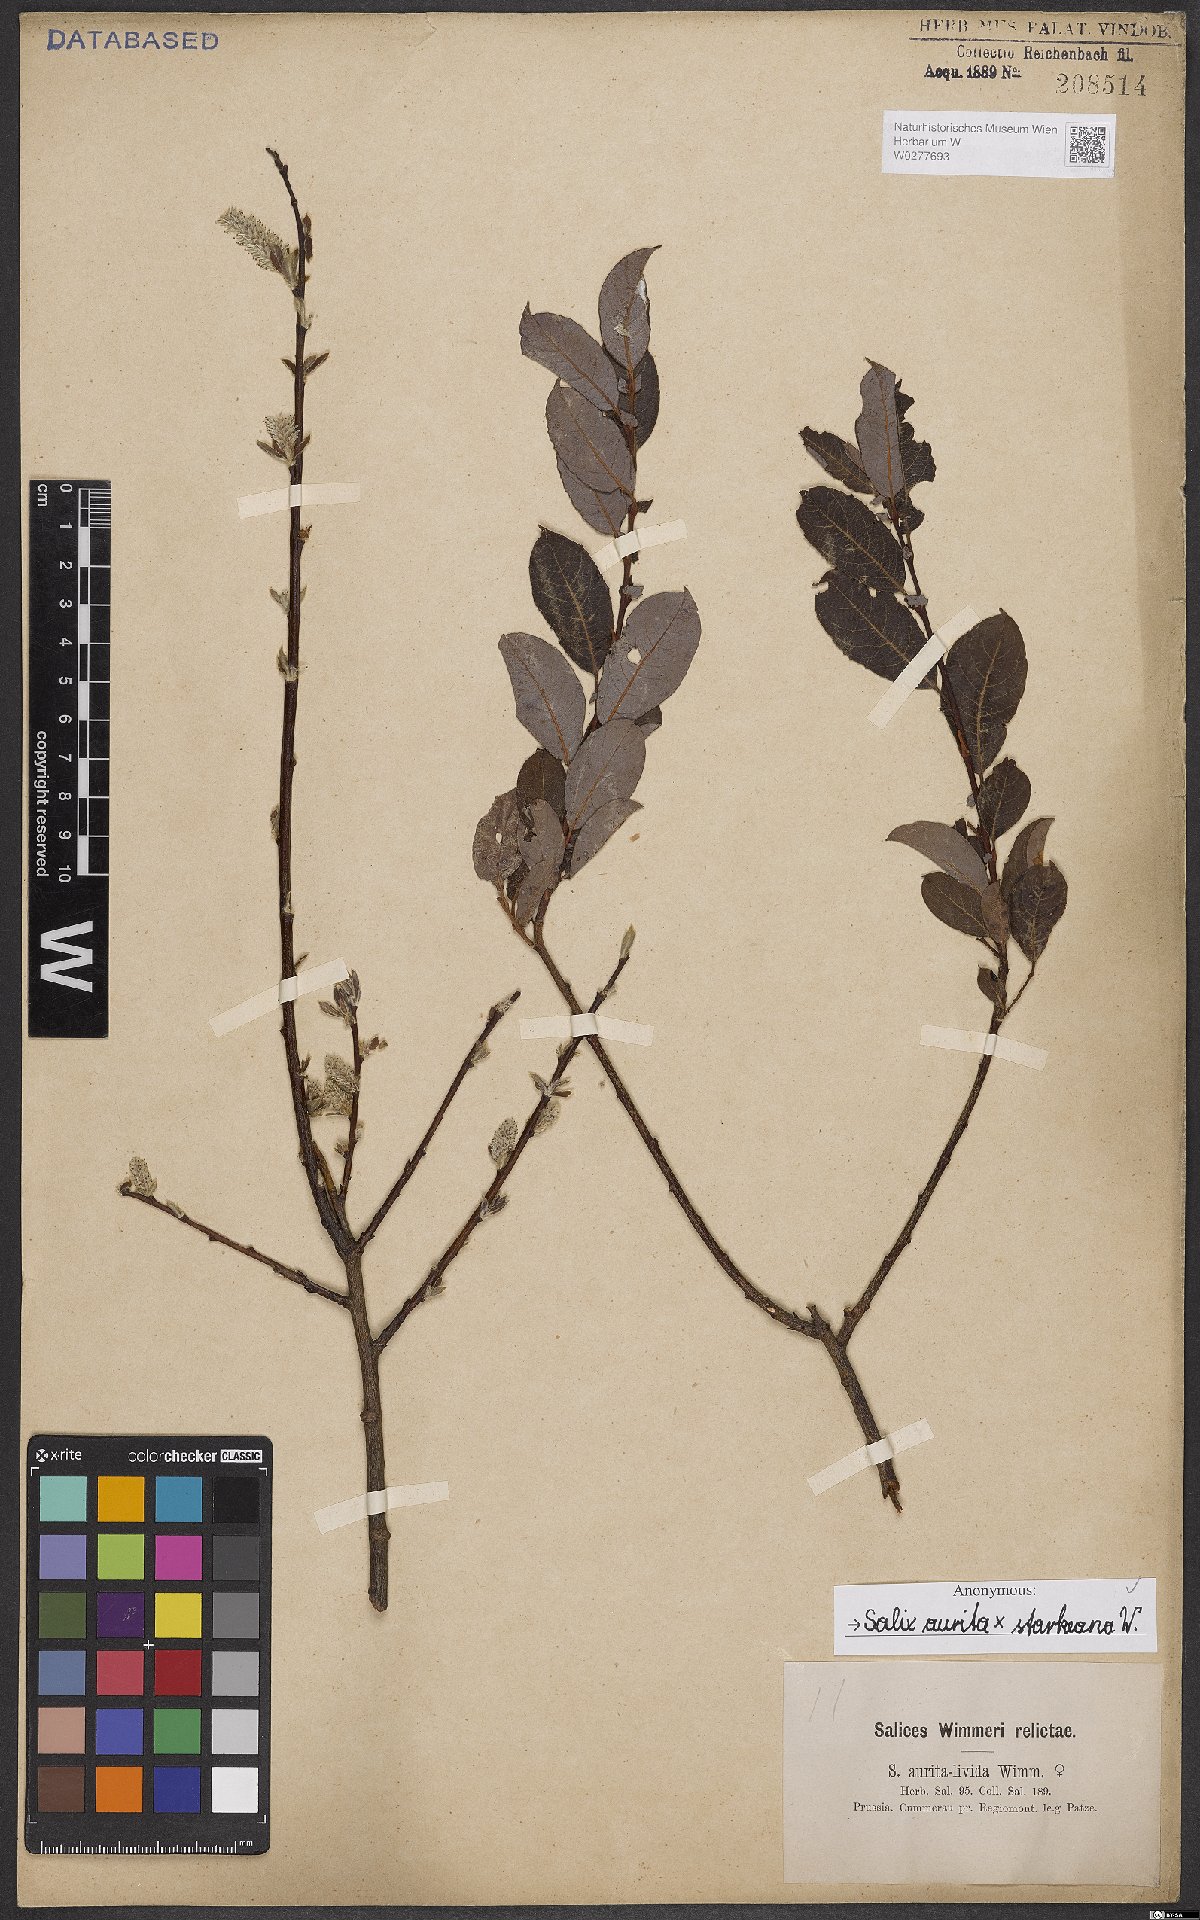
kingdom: Plantae
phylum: Tracheophyta
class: Magnoliopsida
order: Malpighiales
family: Salicaceae
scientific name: Salicaceae
